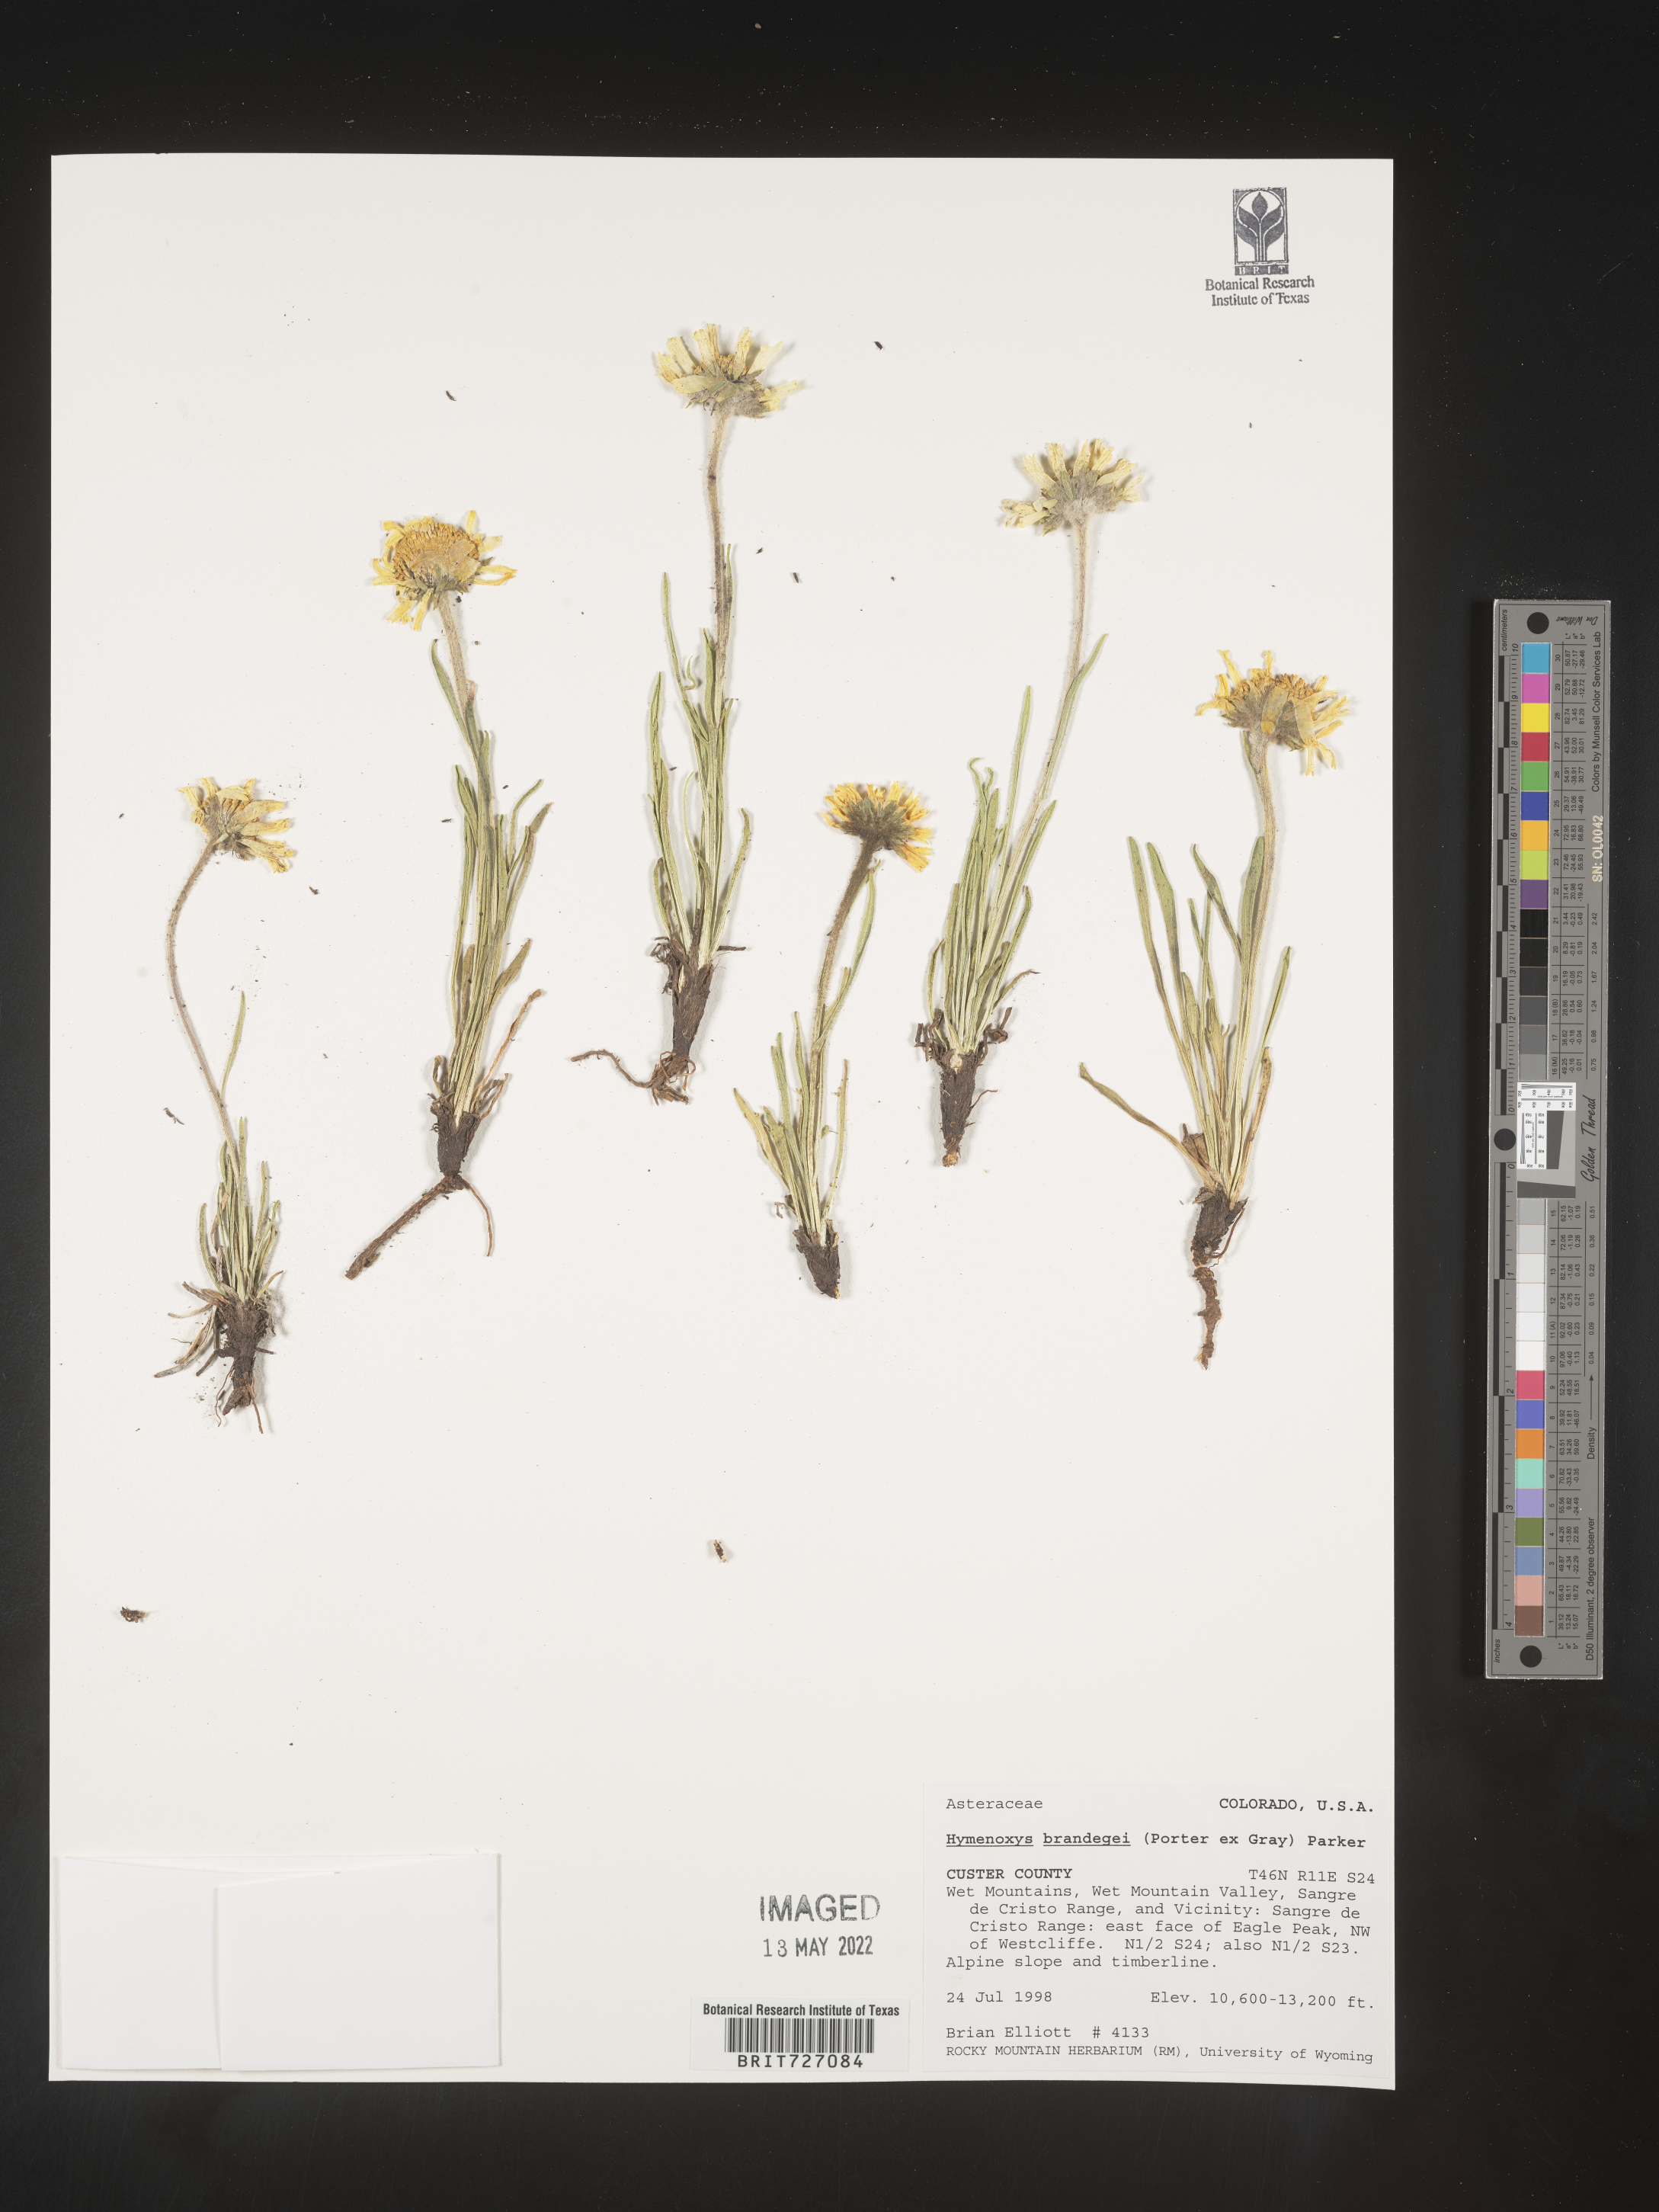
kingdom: Plantae
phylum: Tracheophyta
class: Magnoliopsida
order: Asterales
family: Asteraceae
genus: Hymenoxys
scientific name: Hymenoxys brandegeei
